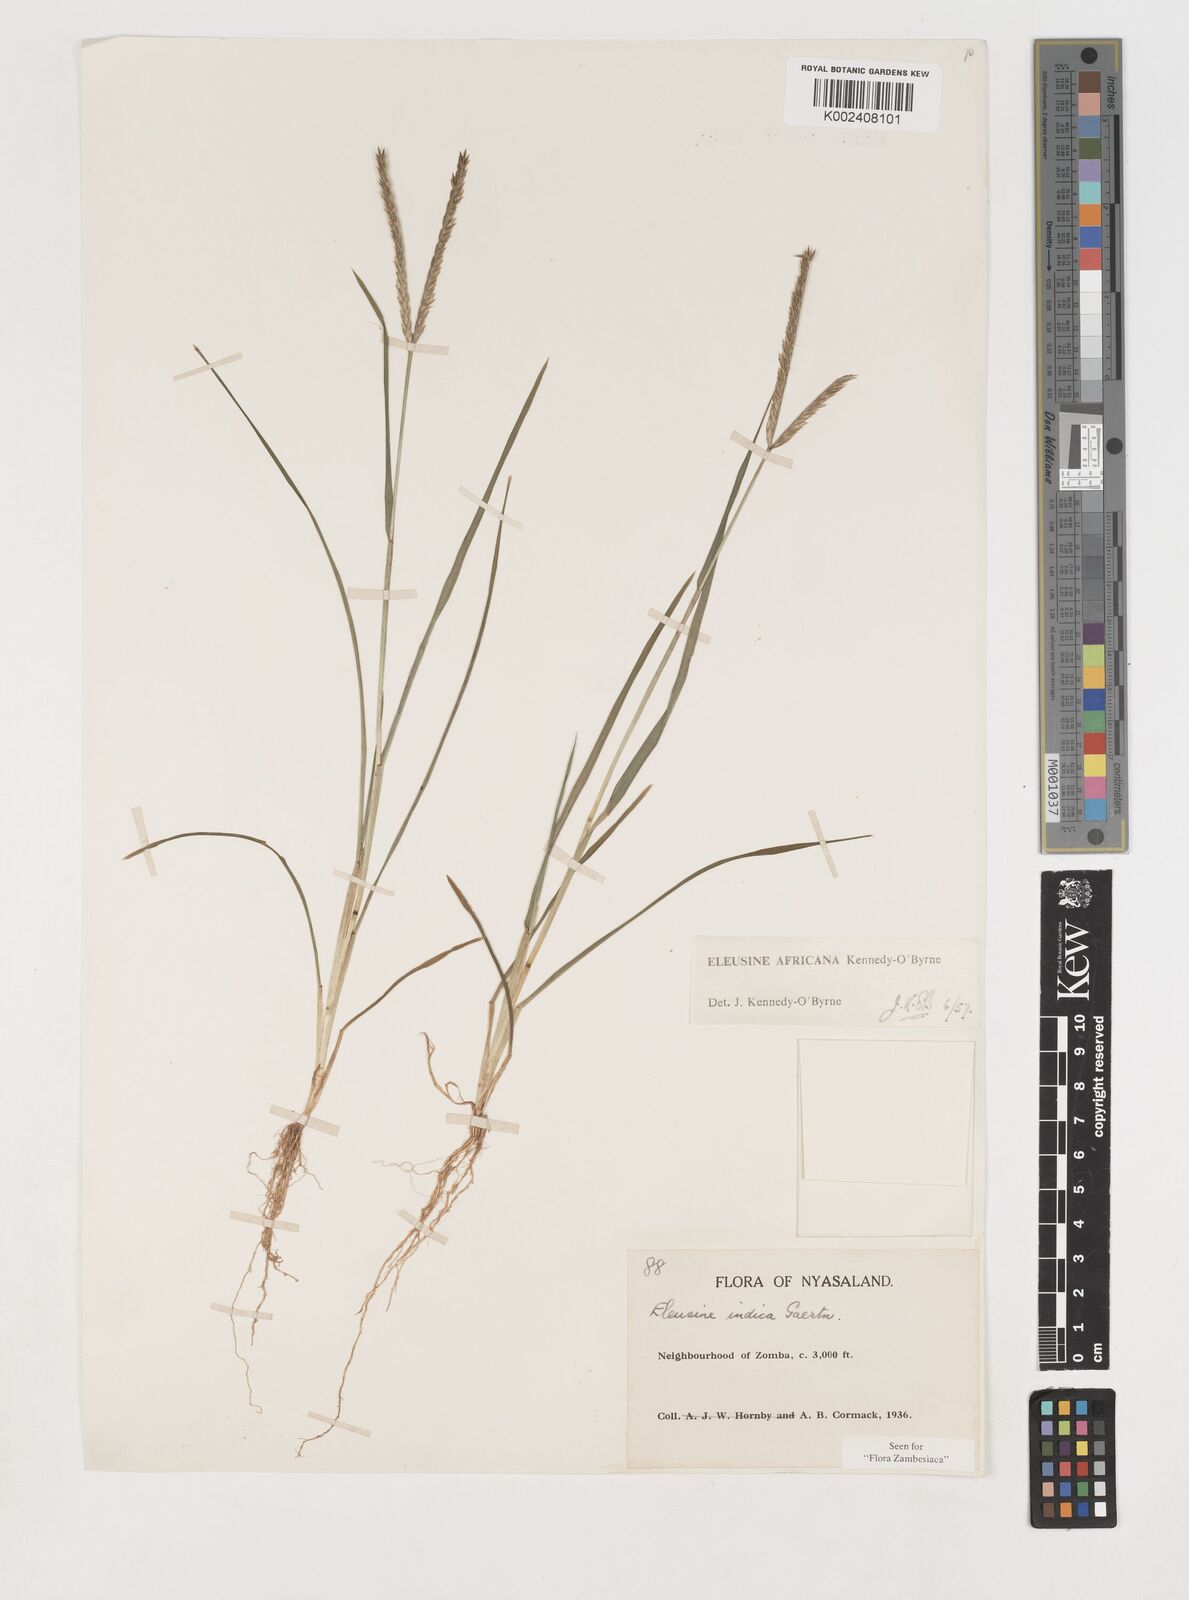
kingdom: Plantae
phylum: Tracheophyta
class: Liliopsida
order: Poales
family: Poaceae
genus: Eleusine
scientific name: Eleusine africana
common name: Wild african finger millet
